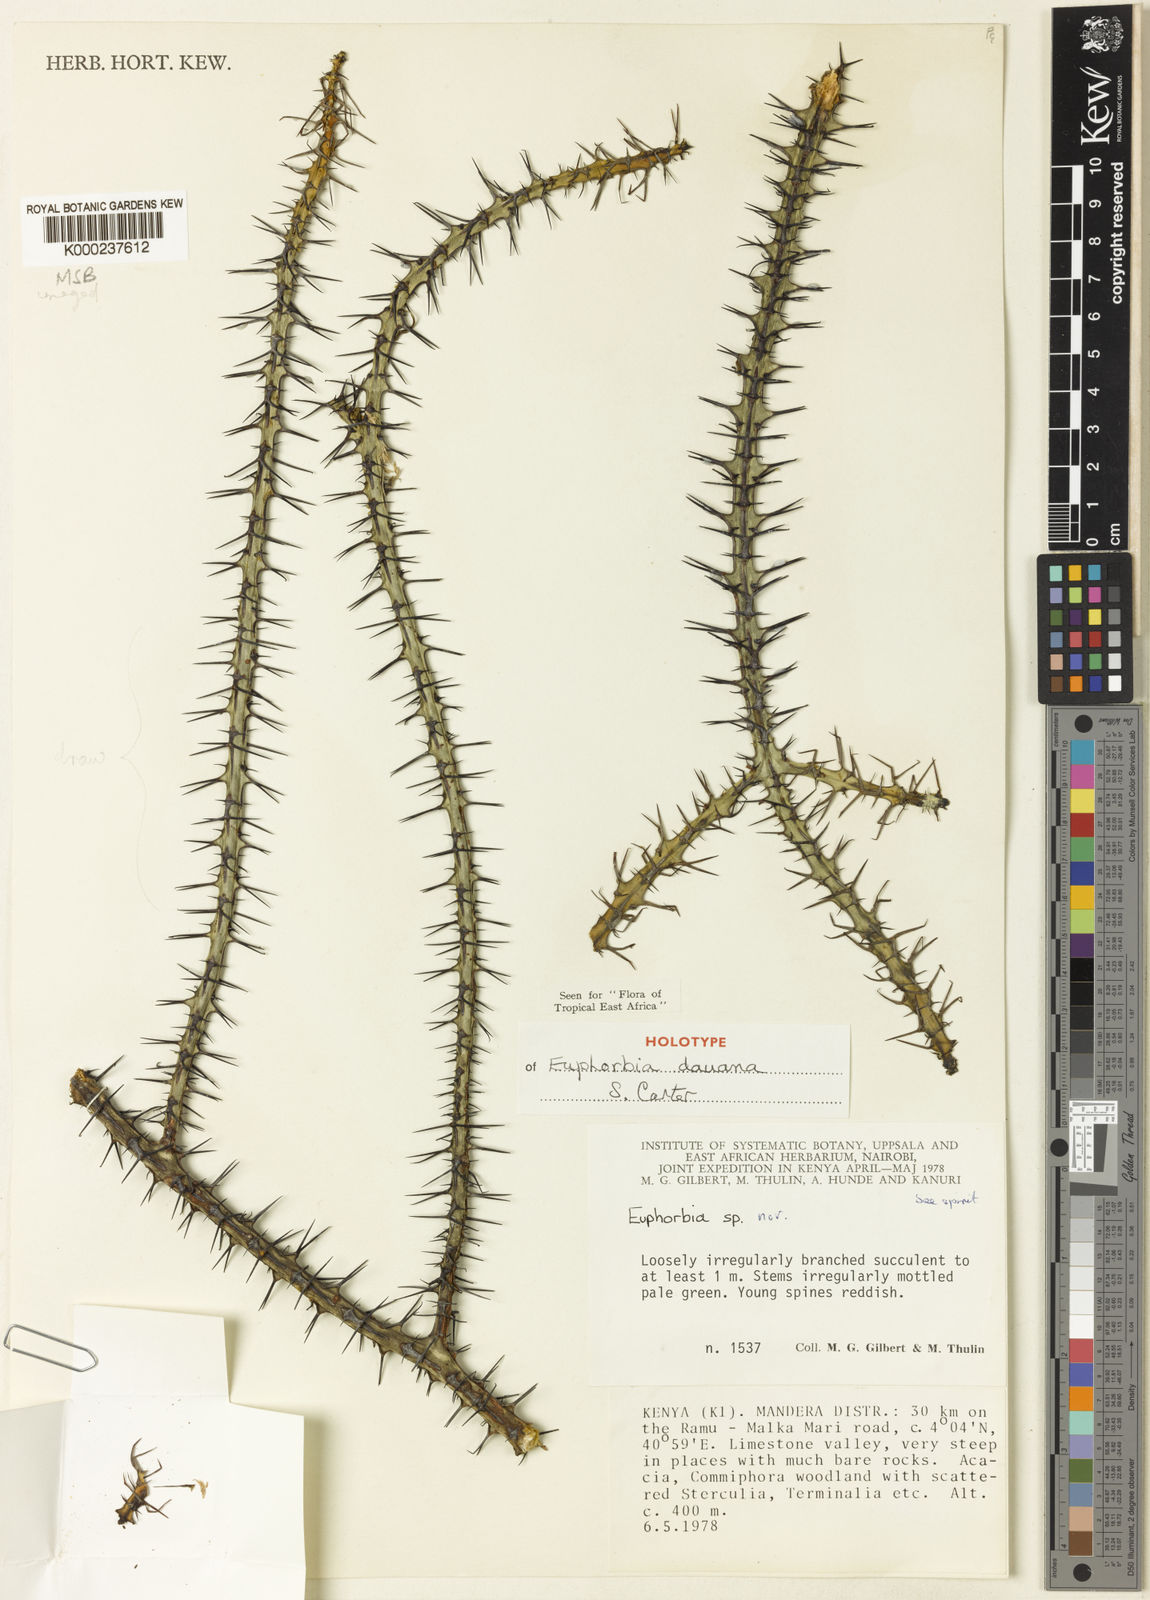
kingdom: Plantae
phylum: Tracheophyta
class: Magnoliopsida
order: Malpighiales
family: Euphorbiaceae
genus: Euphorbia
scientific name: Euphorbia dauana
